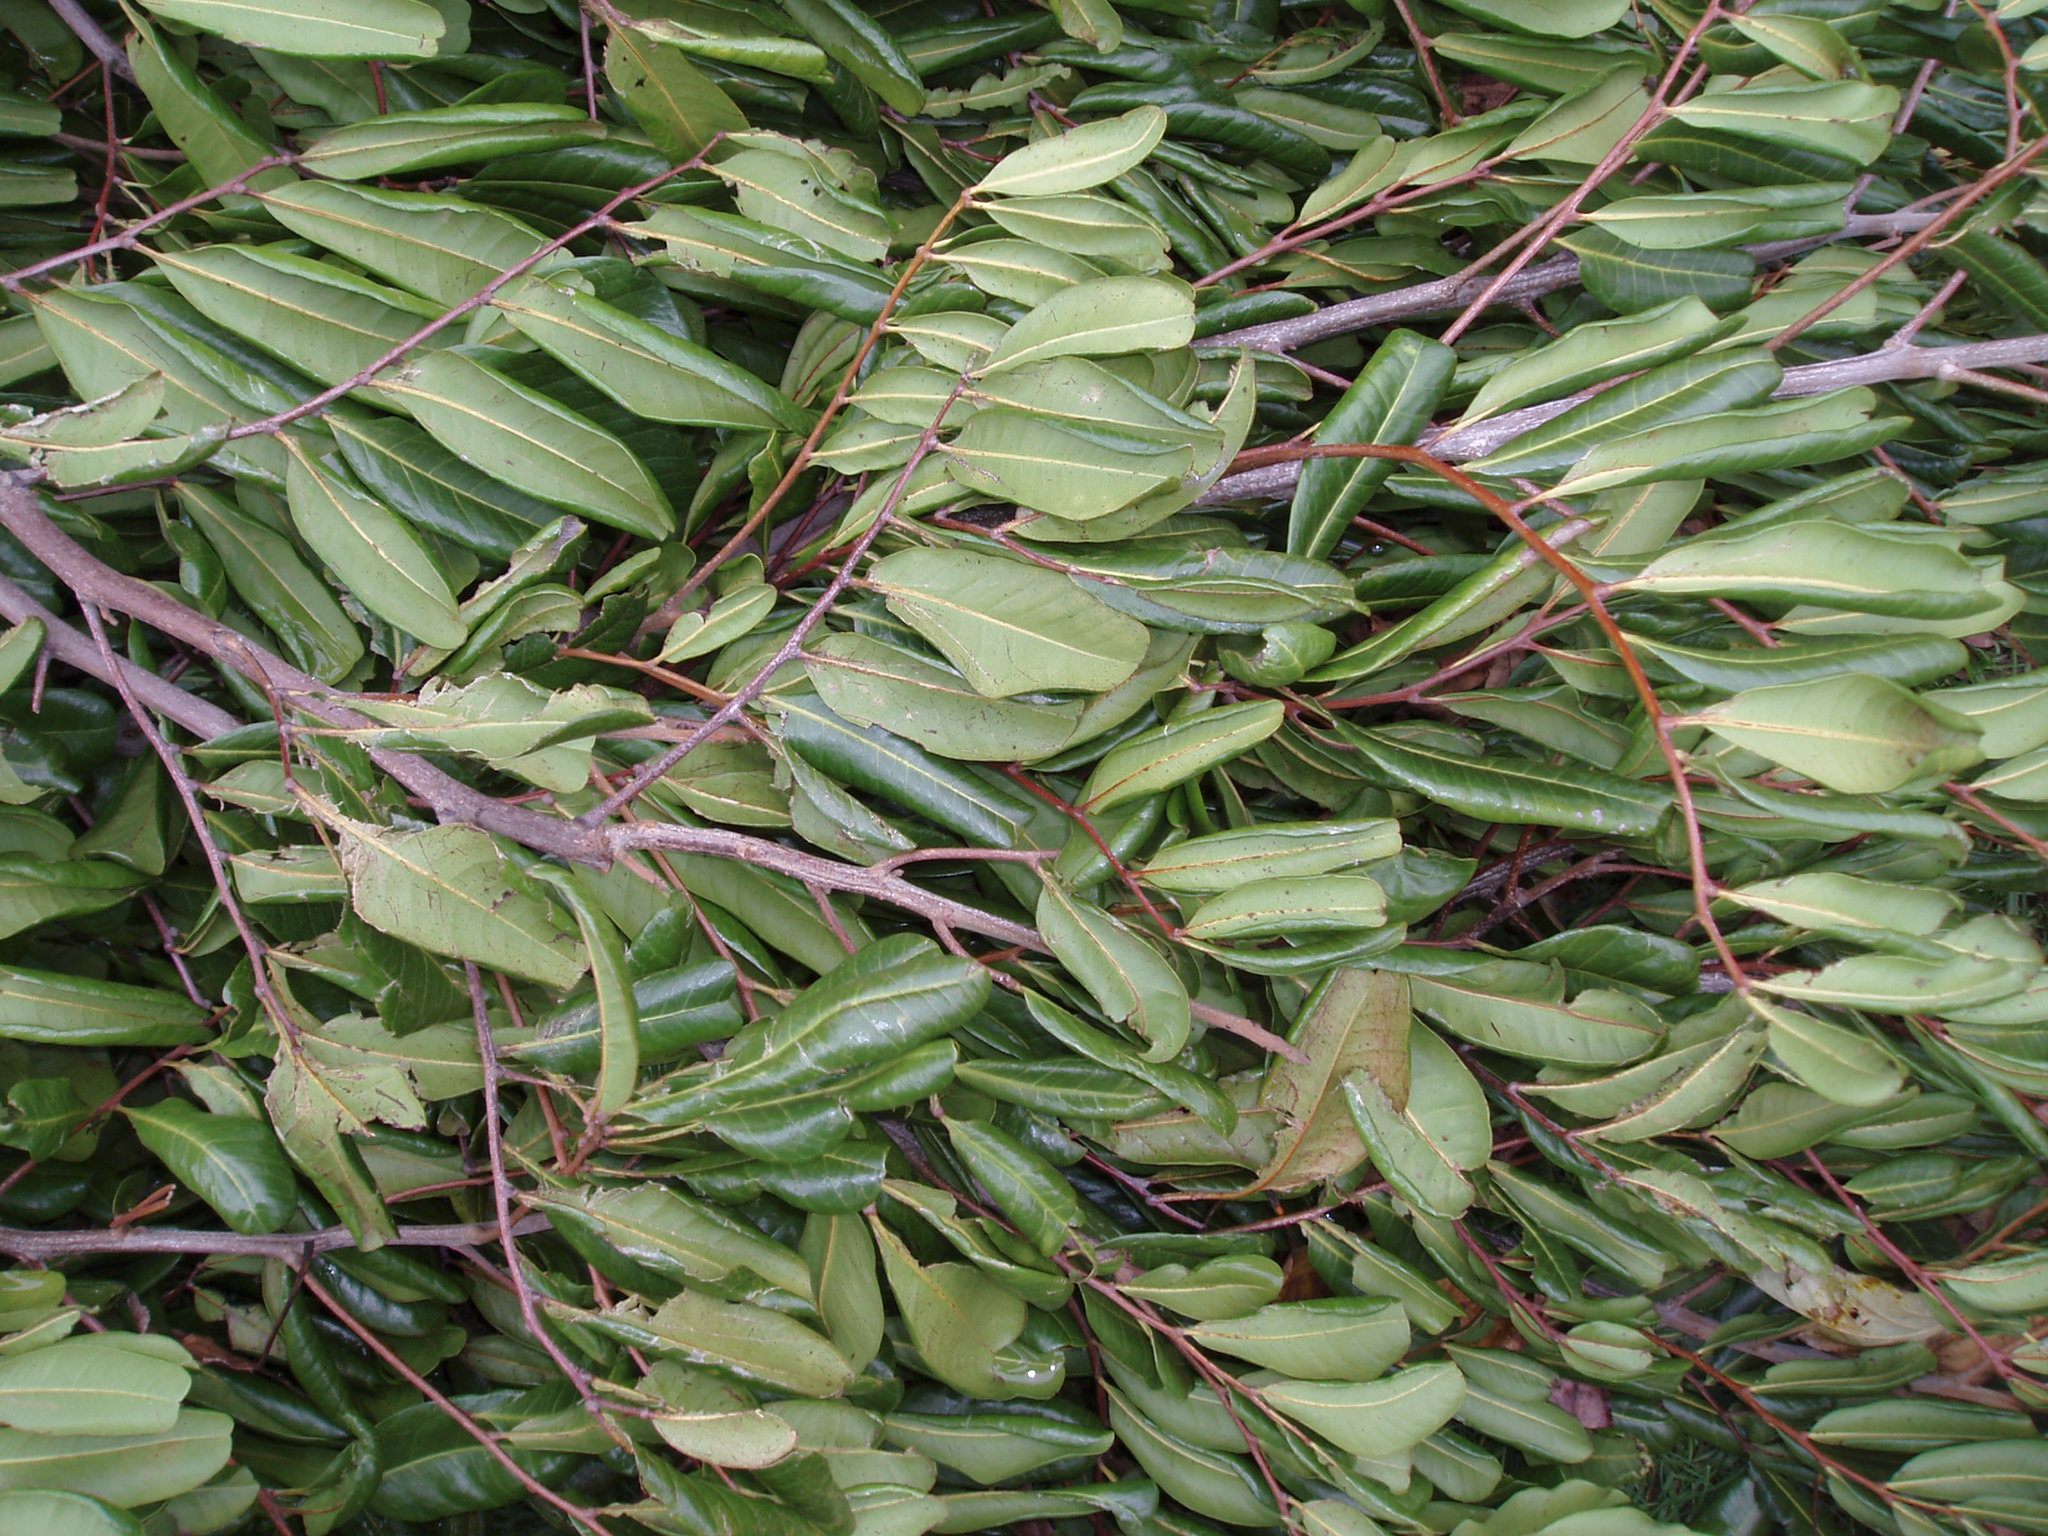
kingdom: Plantae
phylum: Tracheophyta
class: Magnoliopsida
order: Sapindales
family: Sapindaceae
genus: Cupaniopsis
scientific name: Cupaniopsis anacardioides
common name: Carrotwood
